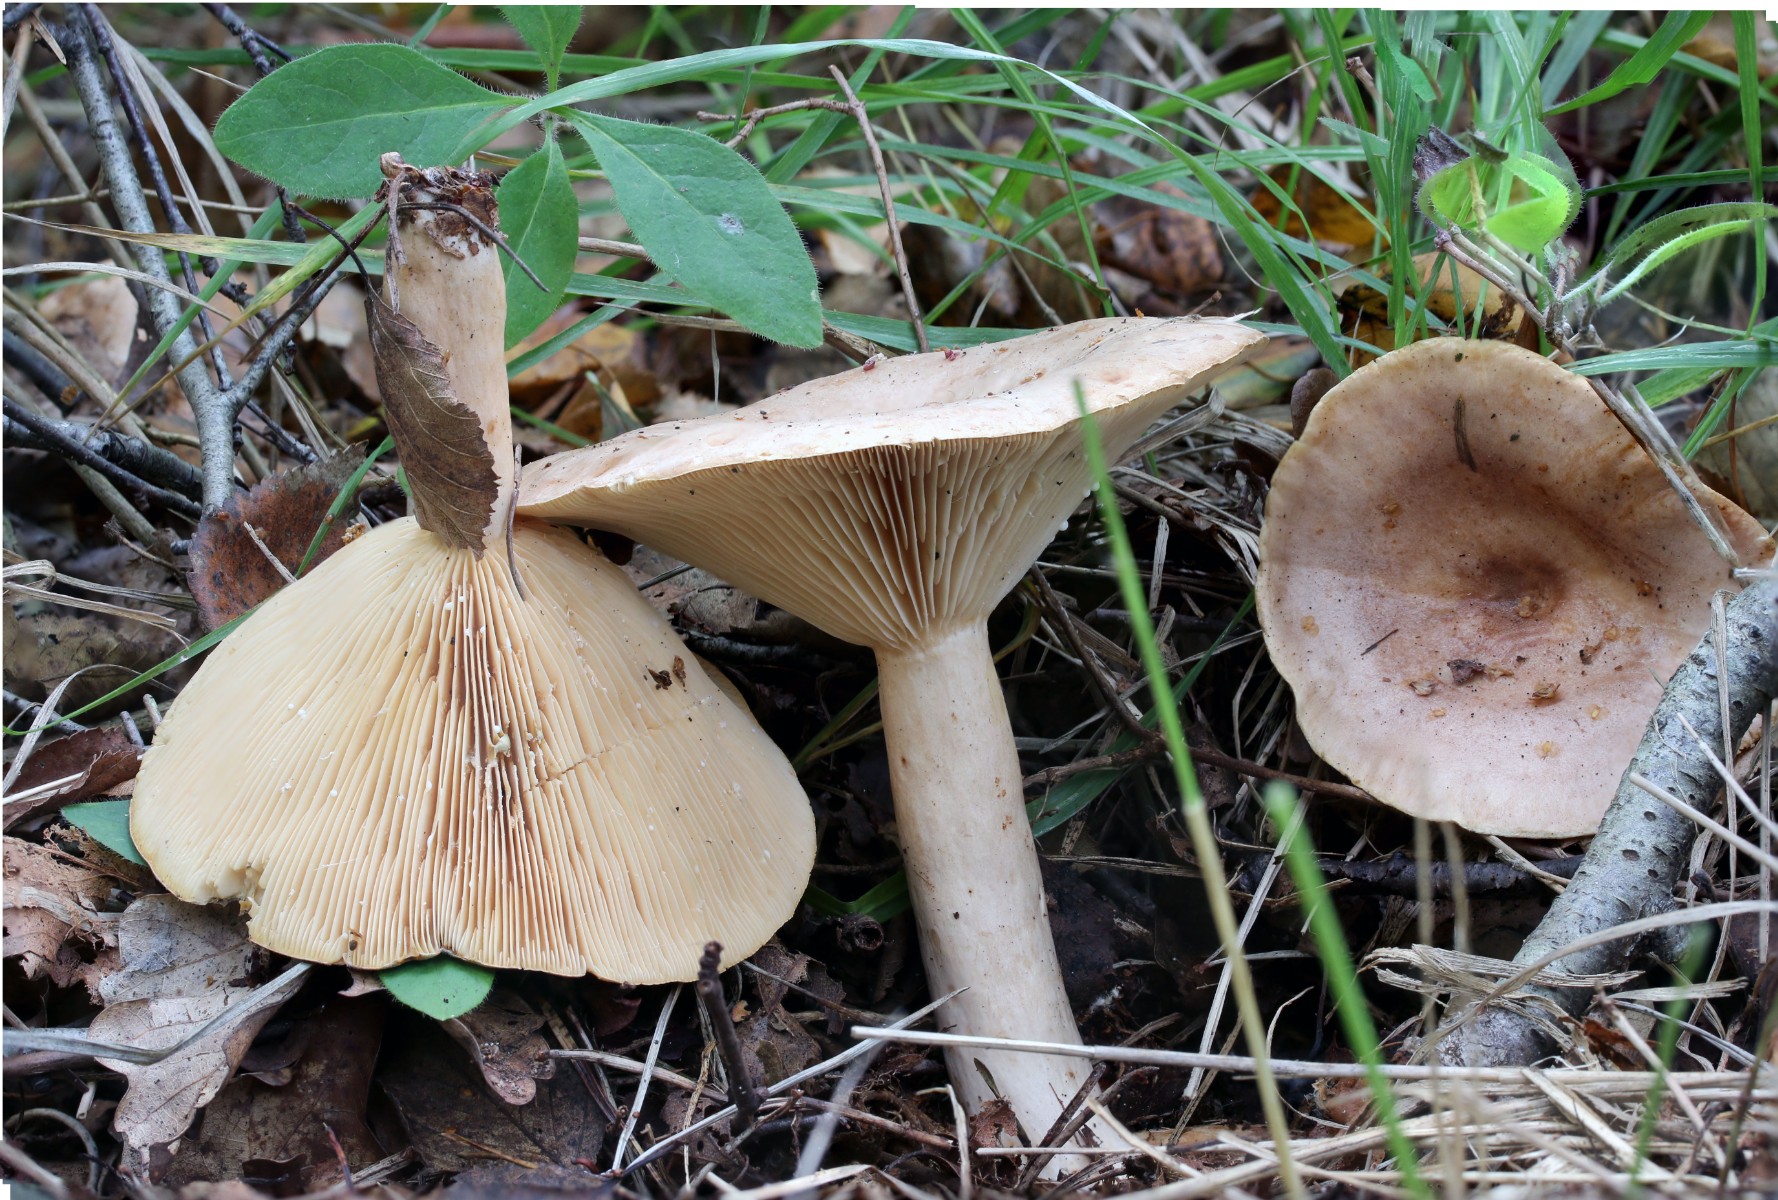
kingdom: Fungi
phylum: Basidiomycota
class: Agaricomycetes
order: Russulales
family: Russulaceae
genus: Lactarius
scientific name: Lactarius trivialis
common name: nordisk mælkehat
